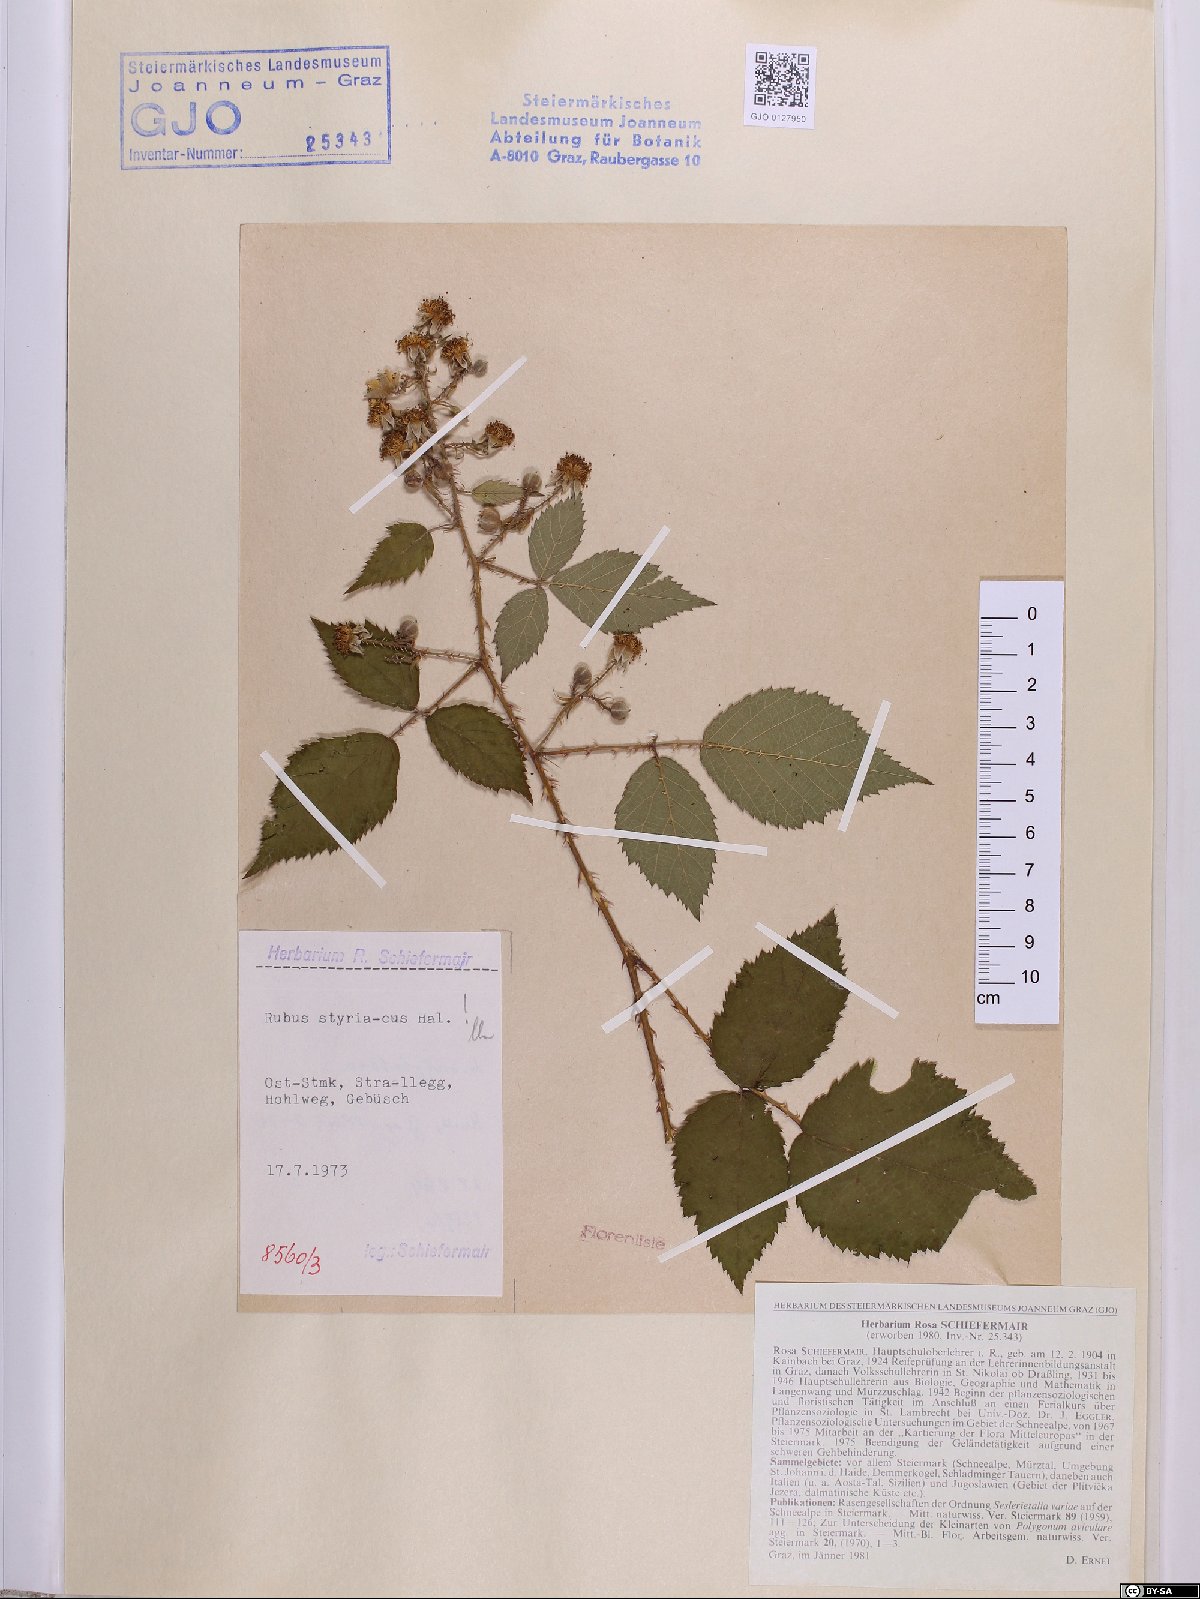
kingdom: Plantae
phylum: Tracheophyta
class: Magnoliopsida
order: Rosales
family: Rosaceae
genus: Rubus
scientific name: Rubus styriacus
